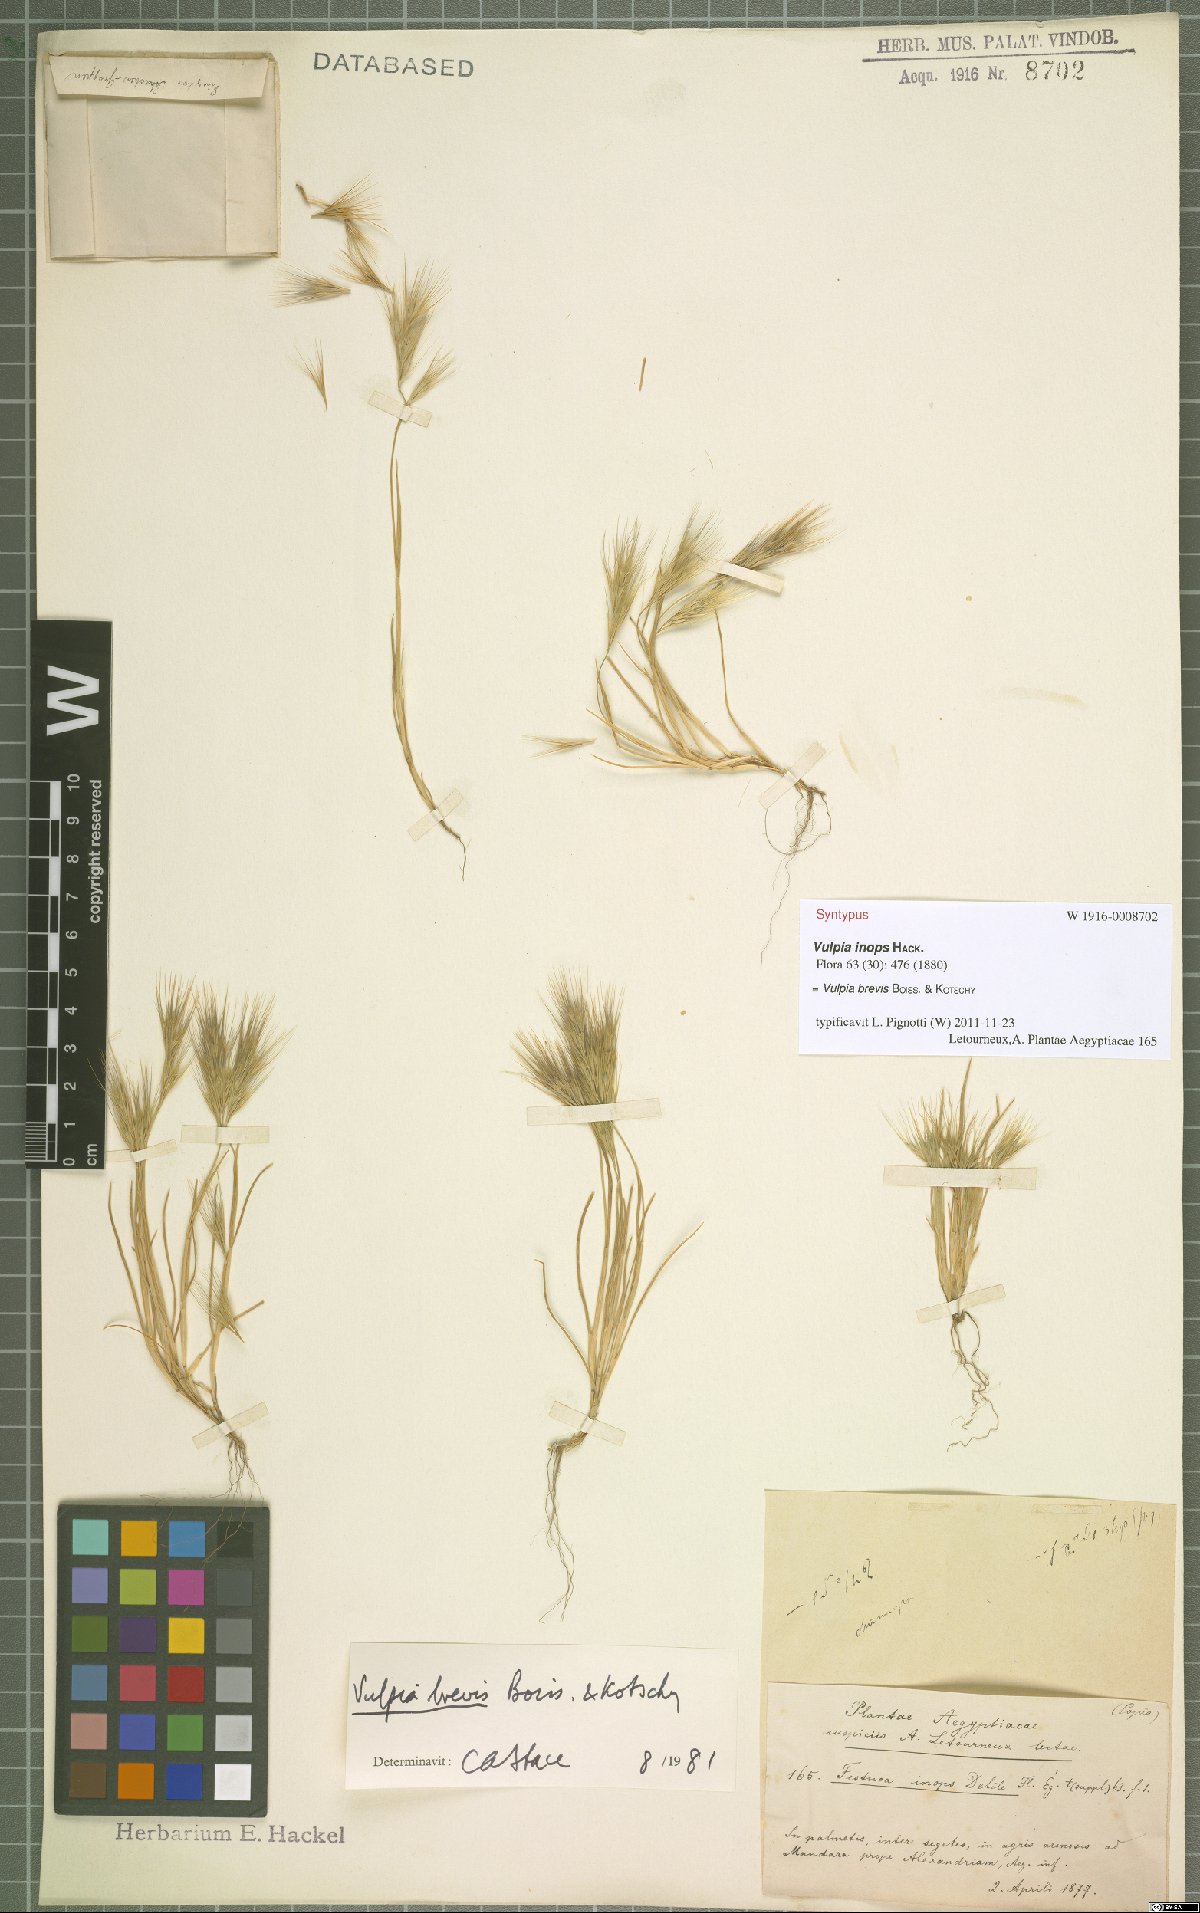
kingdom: Plantae
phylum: Tracheophyta
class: Liliopsida
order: Poales
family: Poaceae
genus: Festuca
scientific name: Festuca brevis
